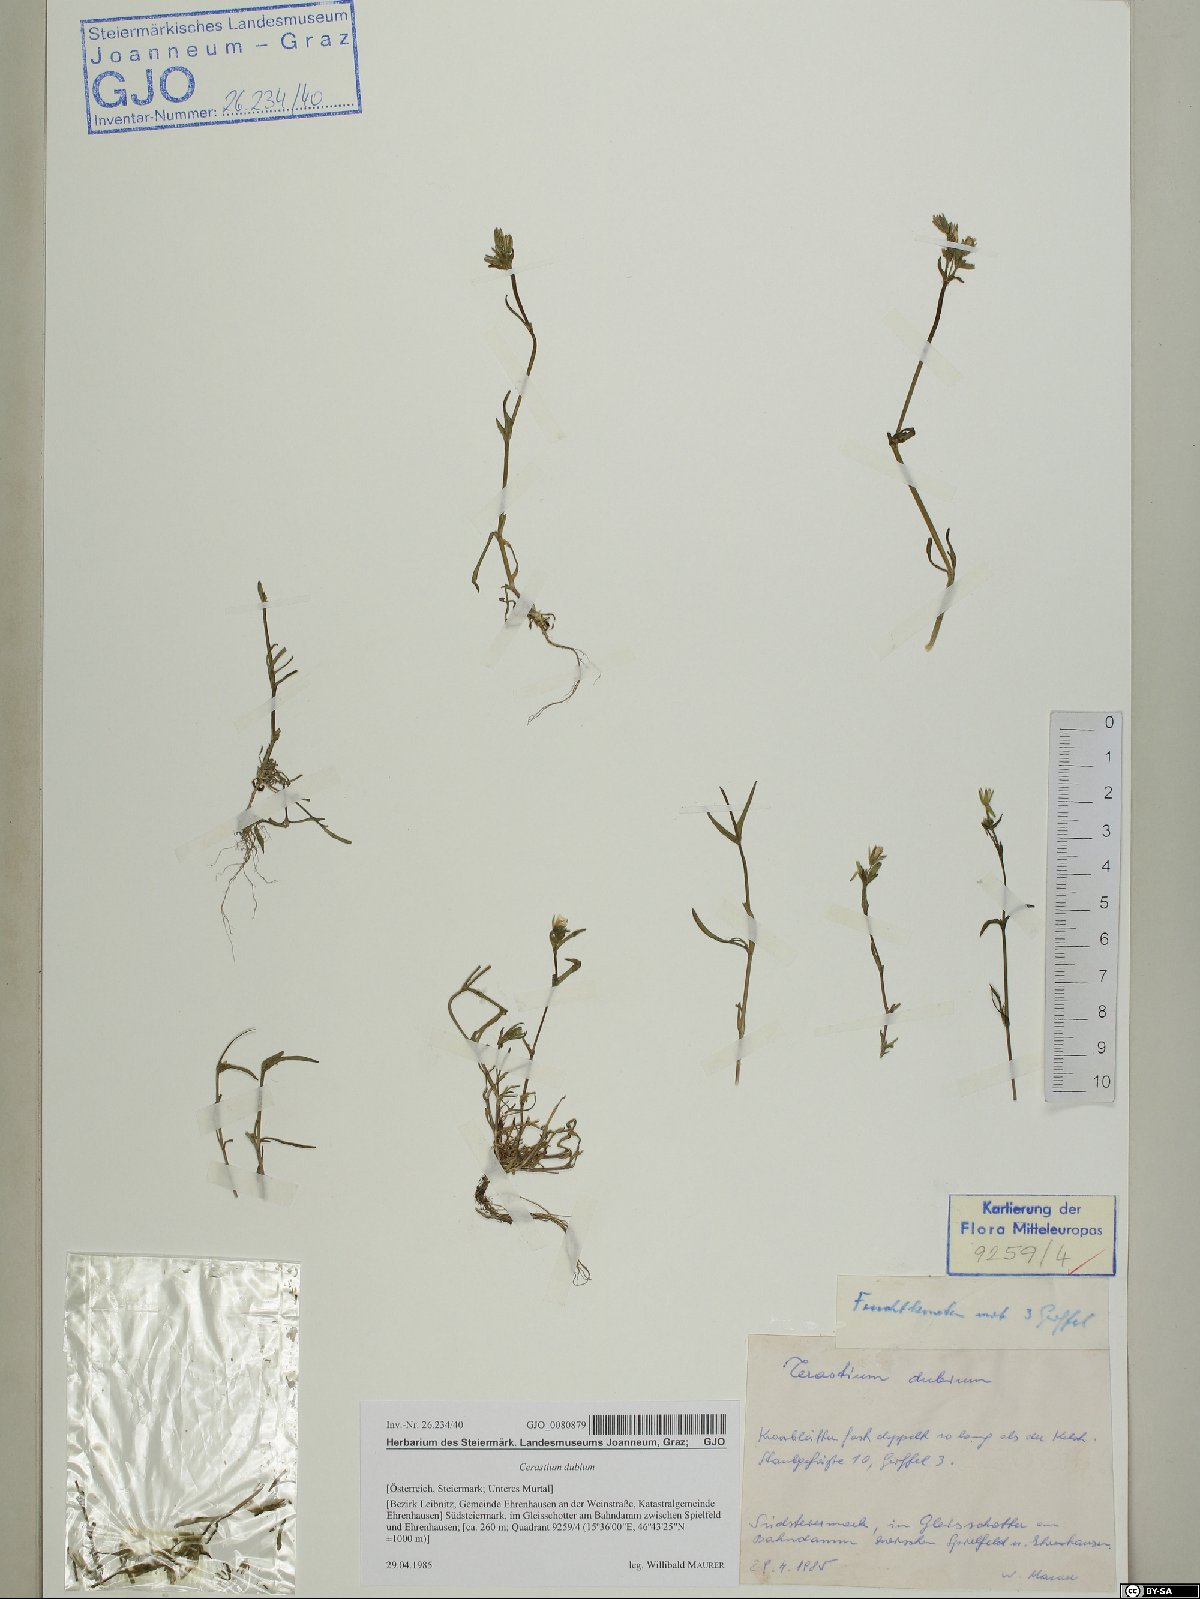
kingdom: Plantae
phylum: Tracheophyta
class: Magnoliopsida
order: Caryophyllales
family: Caryophyllaceae
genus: Dichodon
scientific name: Dichodon viscidum
